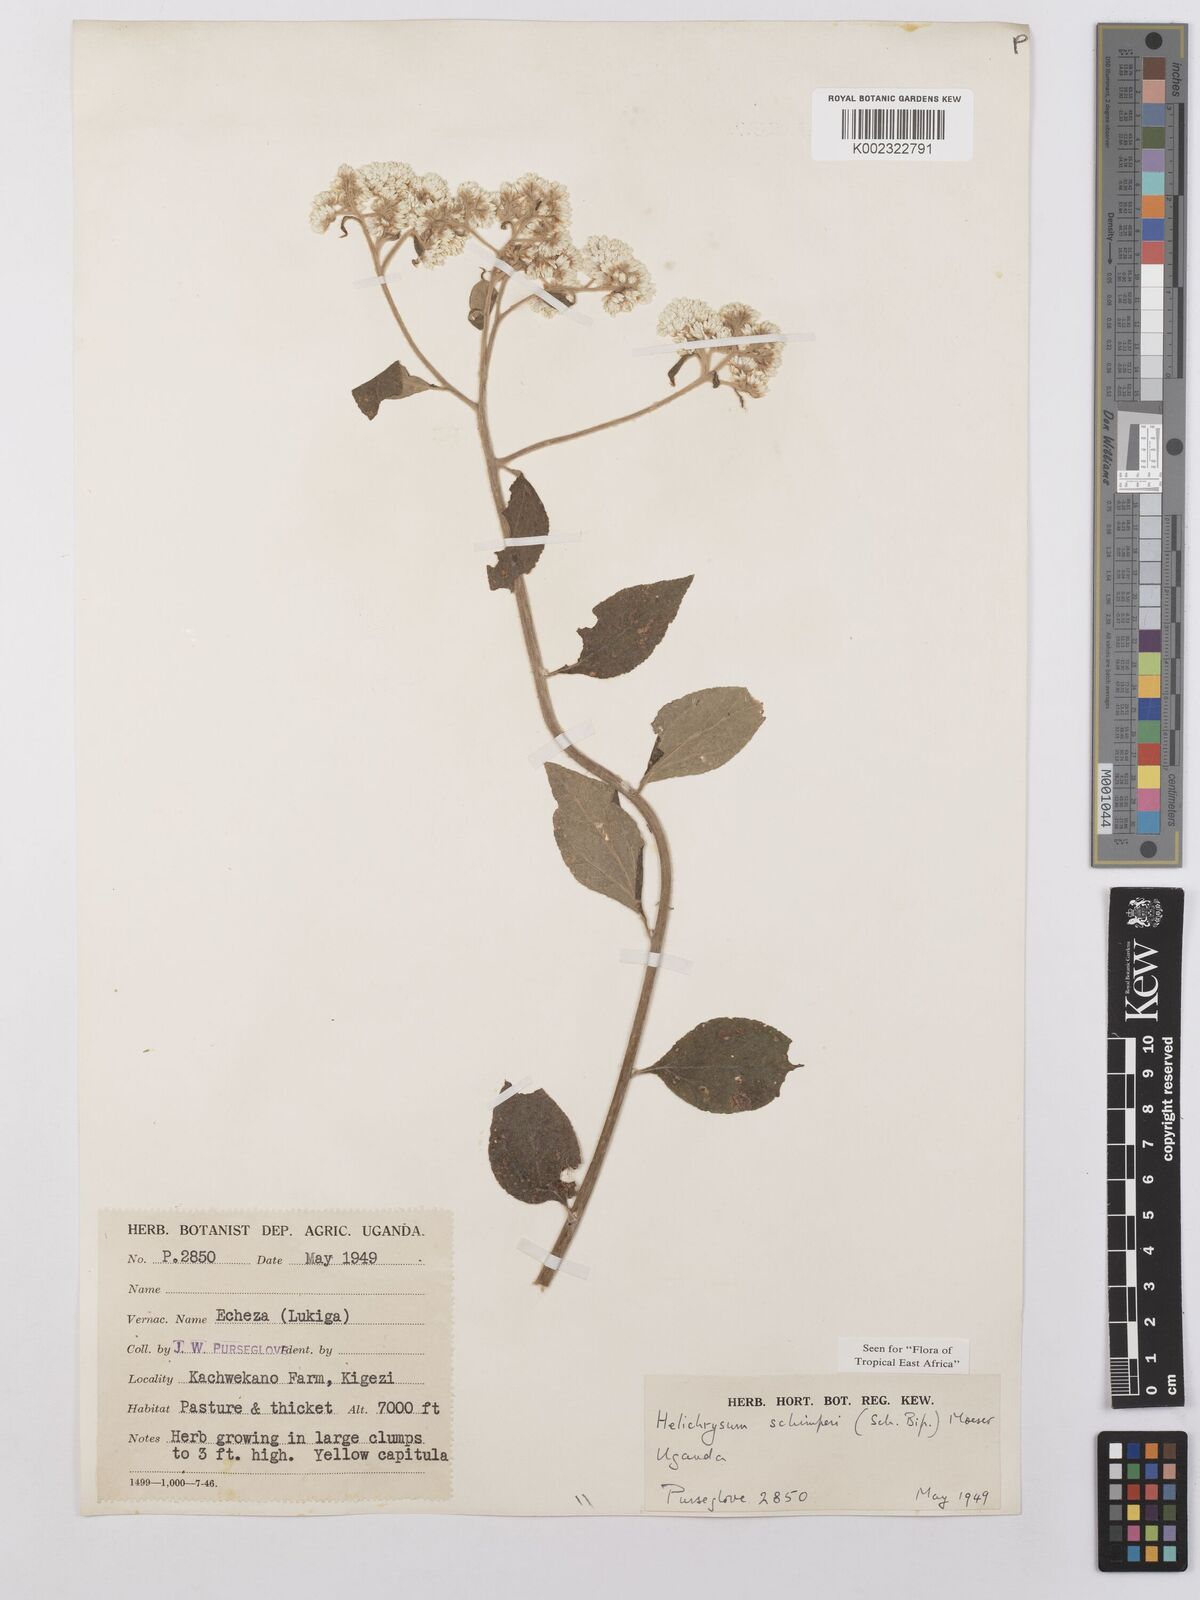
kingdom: Plantae
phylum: Tracheophyta
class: Magnoliopsida
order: Asterales
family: Asteraceae
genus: Helichrysum
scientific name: Helichrysum schimperi
